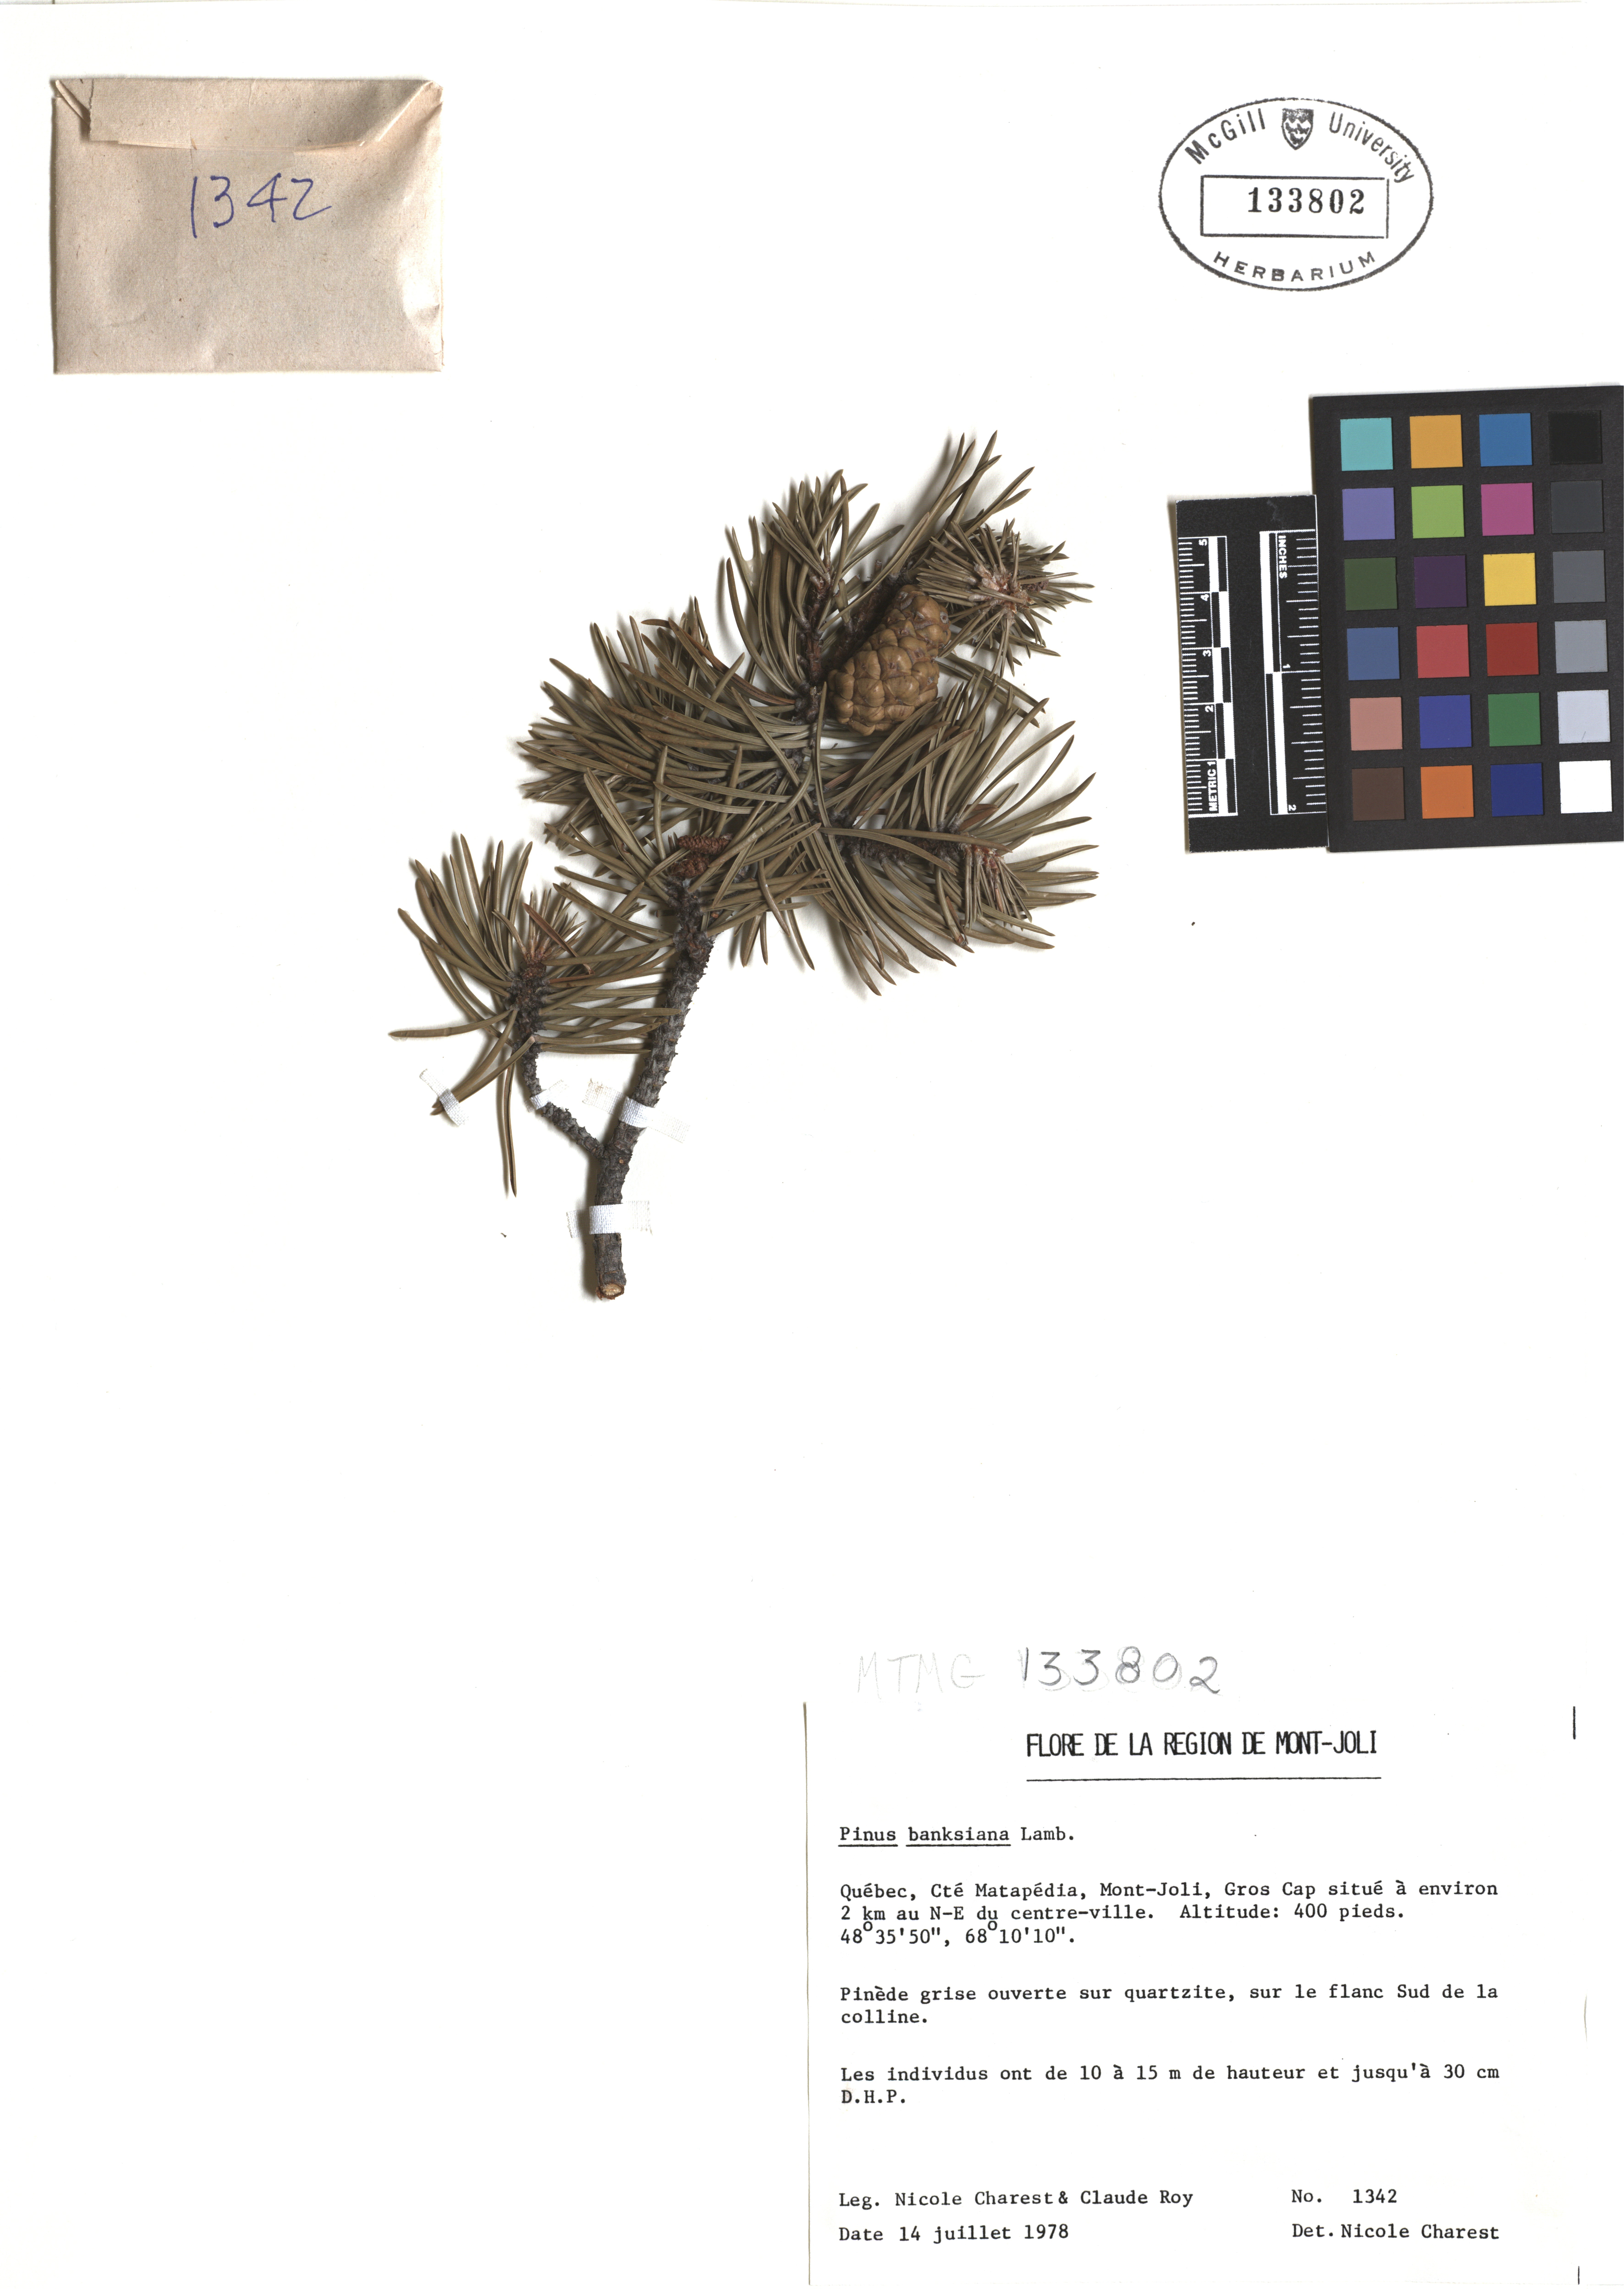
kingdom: Plantae
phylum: Tracheophyta
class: Pinopsida
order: Pinales
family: Pinaceae
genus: Pinus
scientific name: Pinus banksiana
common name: Jack pine
